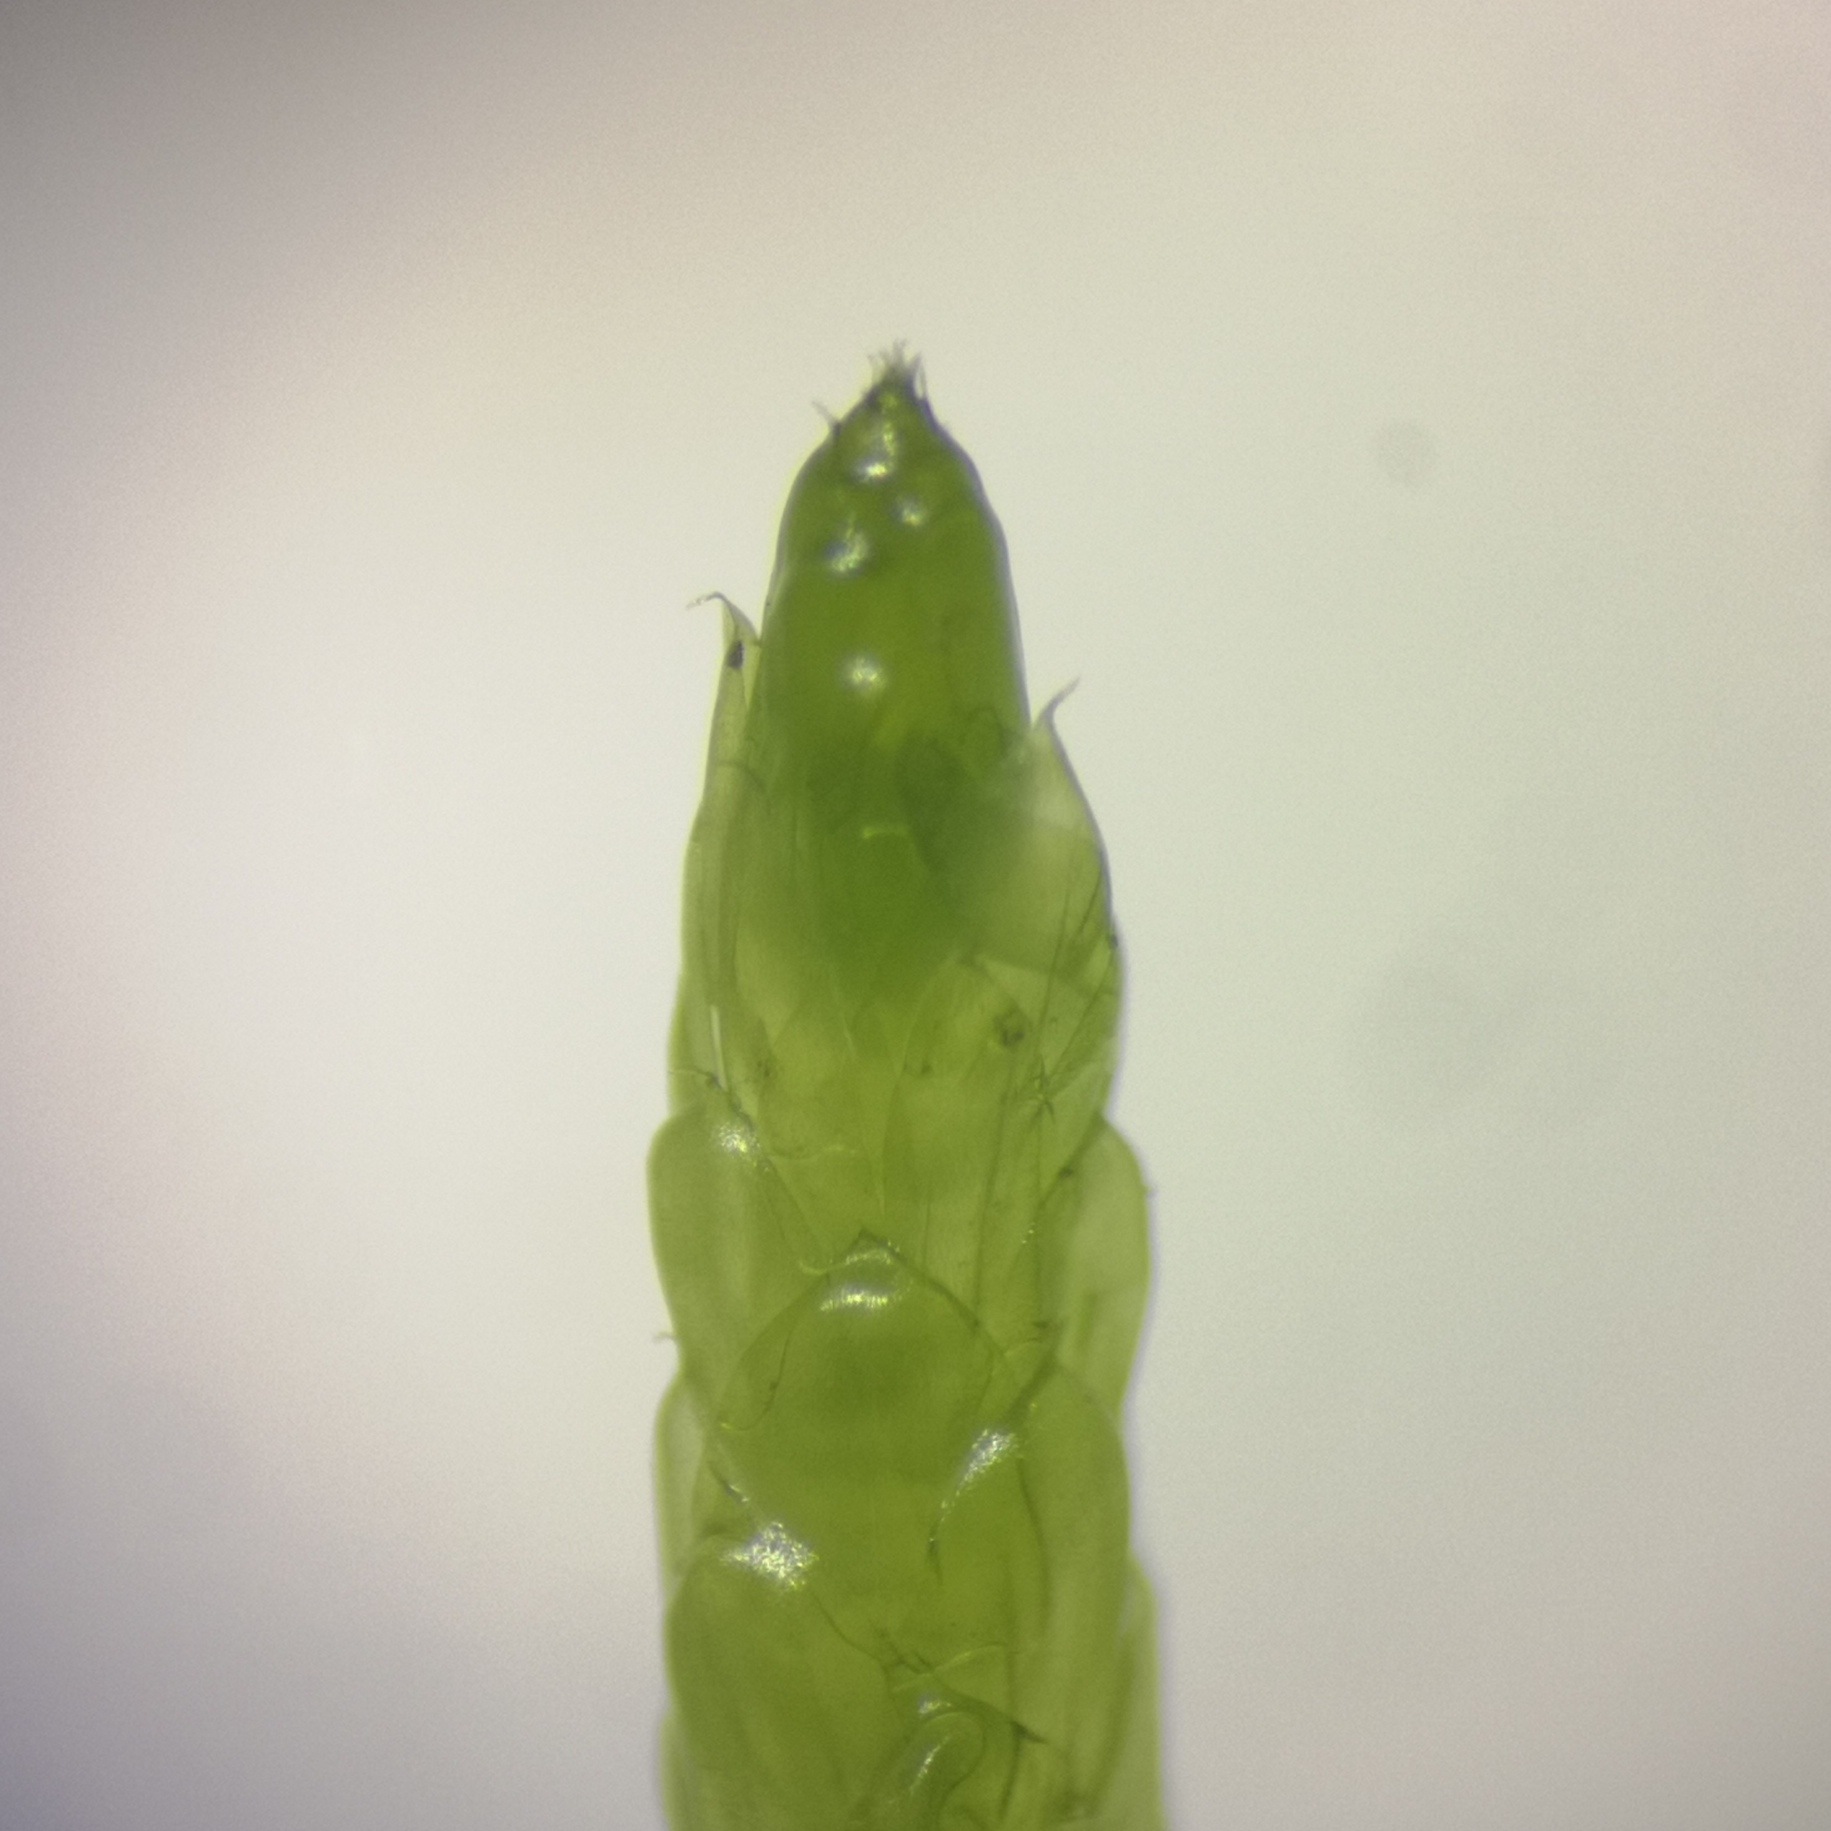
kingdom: Plantae
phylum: Bryophyta
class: Bryopsida
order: Hypnales
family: Brachytheciaceae
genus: Pseudoscleropodium
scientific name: Pseudoscleropodium purum
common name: Hulbladet fedtmos
